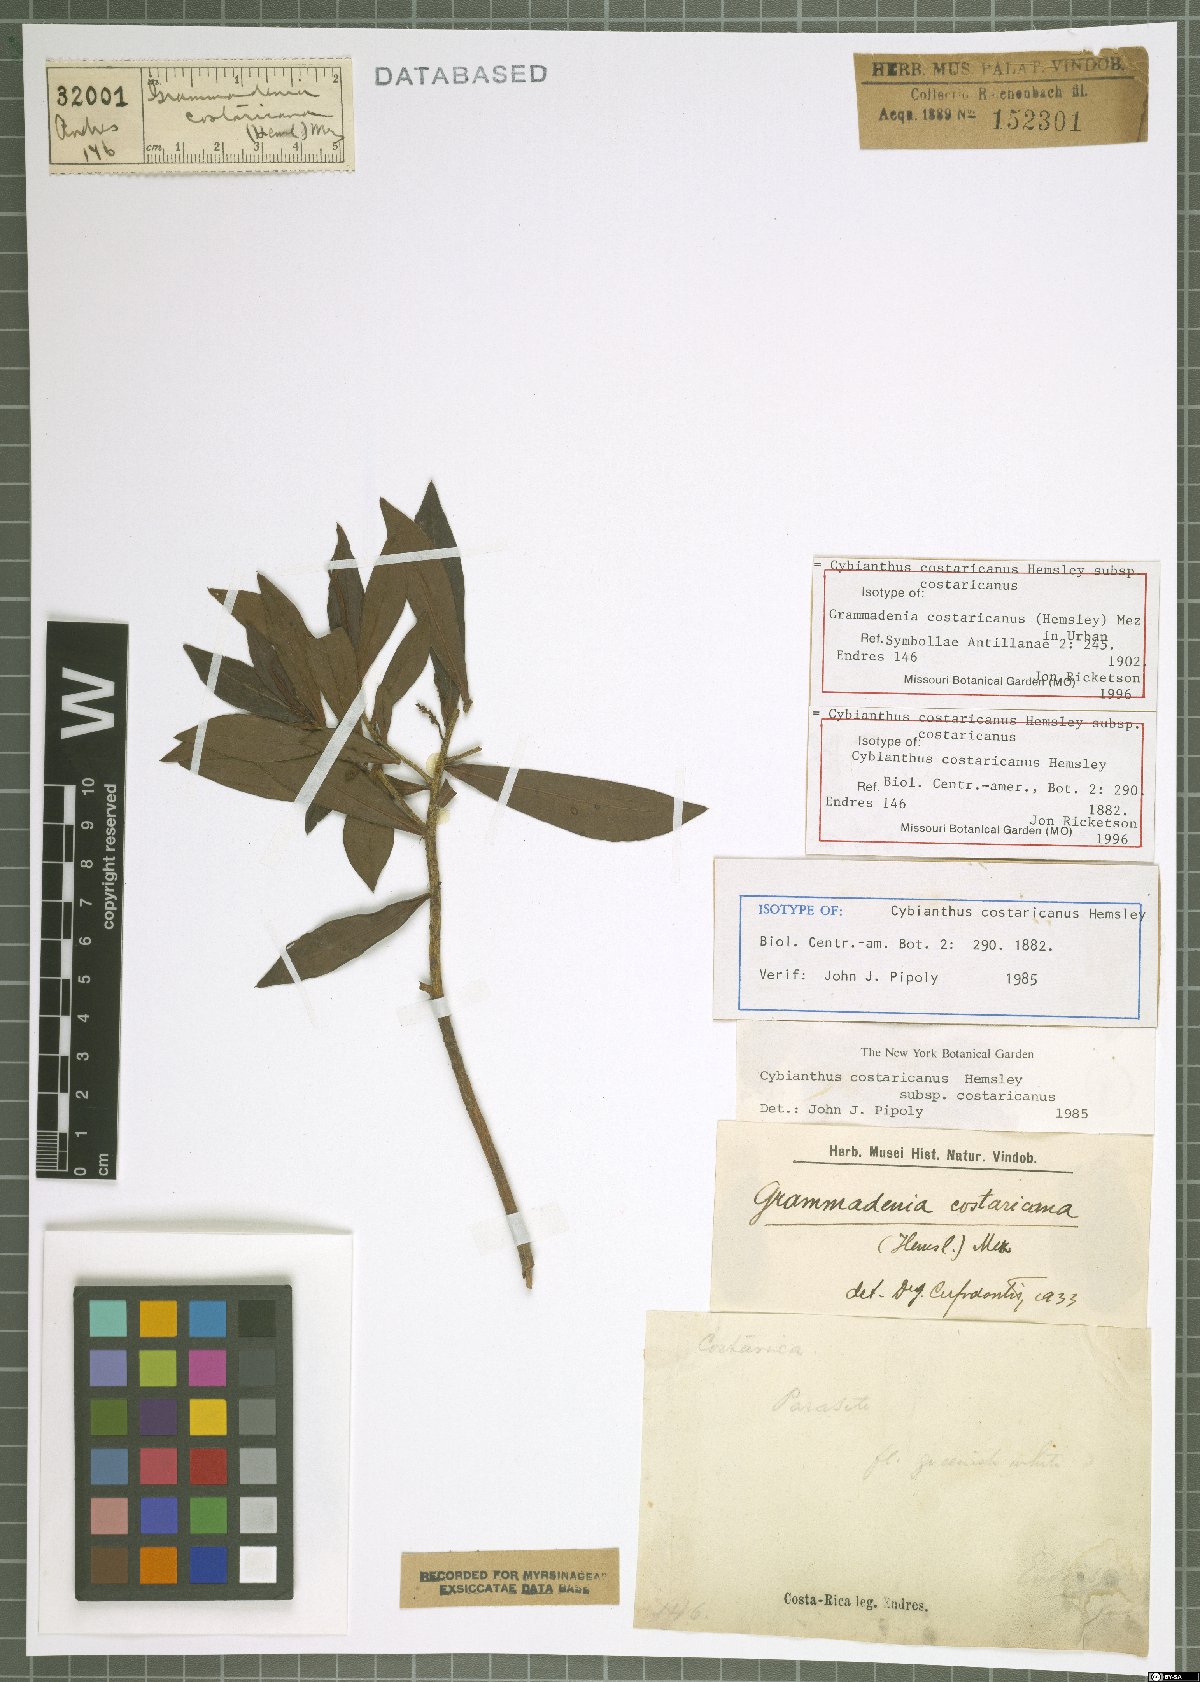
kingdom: Plantae
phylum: Tracheophyta
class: Magnoliopsida
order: Ericales
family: Primulaceae
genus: Cybianthus
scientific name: Cybianthus costaricanus
